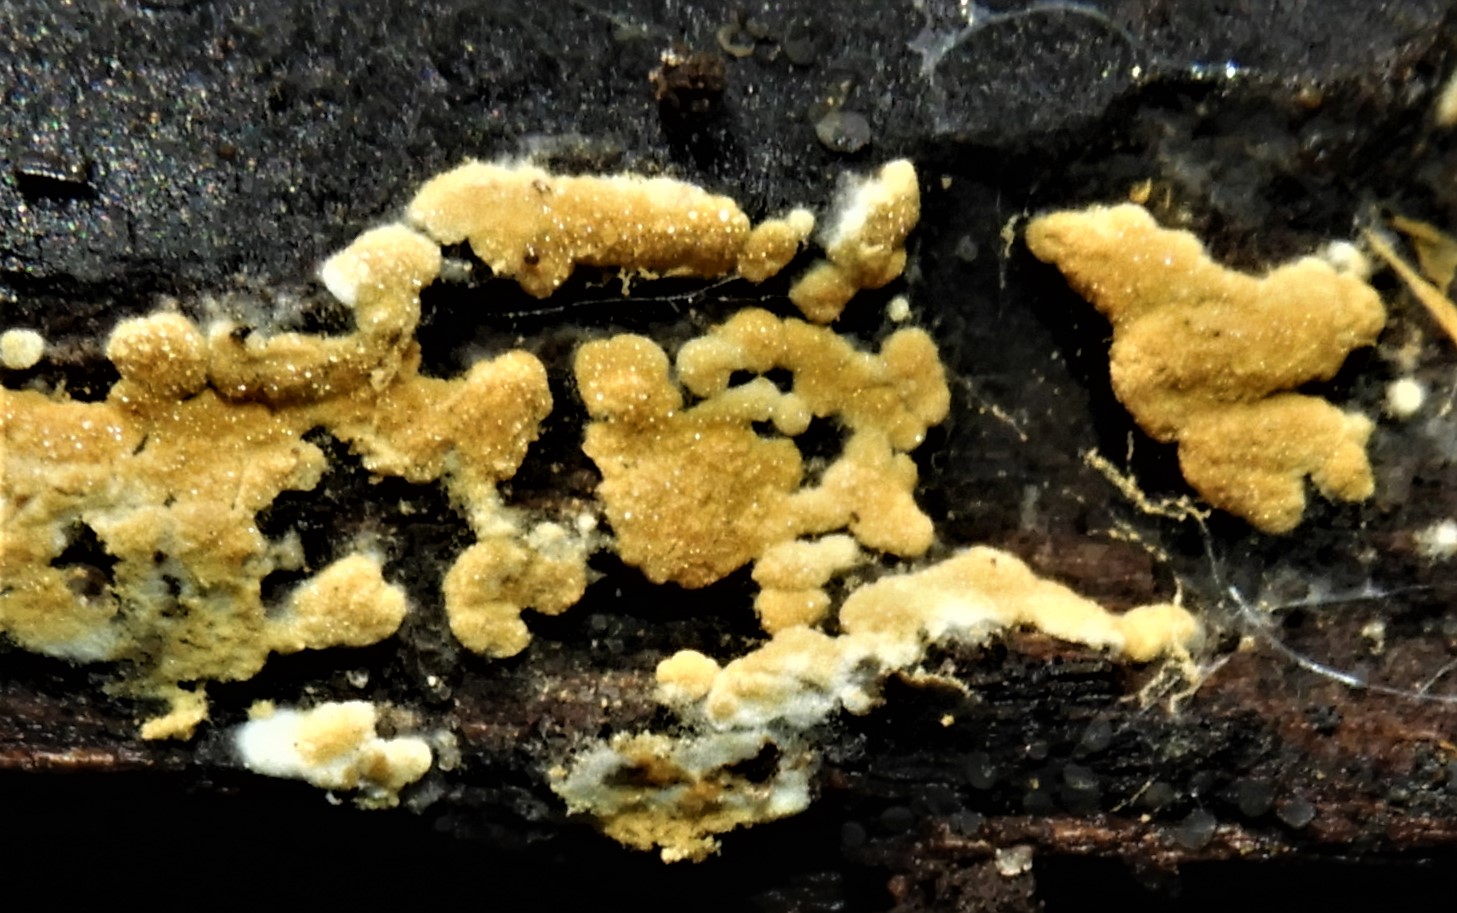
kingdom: Fungi
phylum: Basidiomycota
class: Agaricomycetes
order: Cantharellales
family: Botryobasidiaceae
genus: Botryobasidium
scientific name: Botryobasidium aureum
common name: gylden spindhinde
